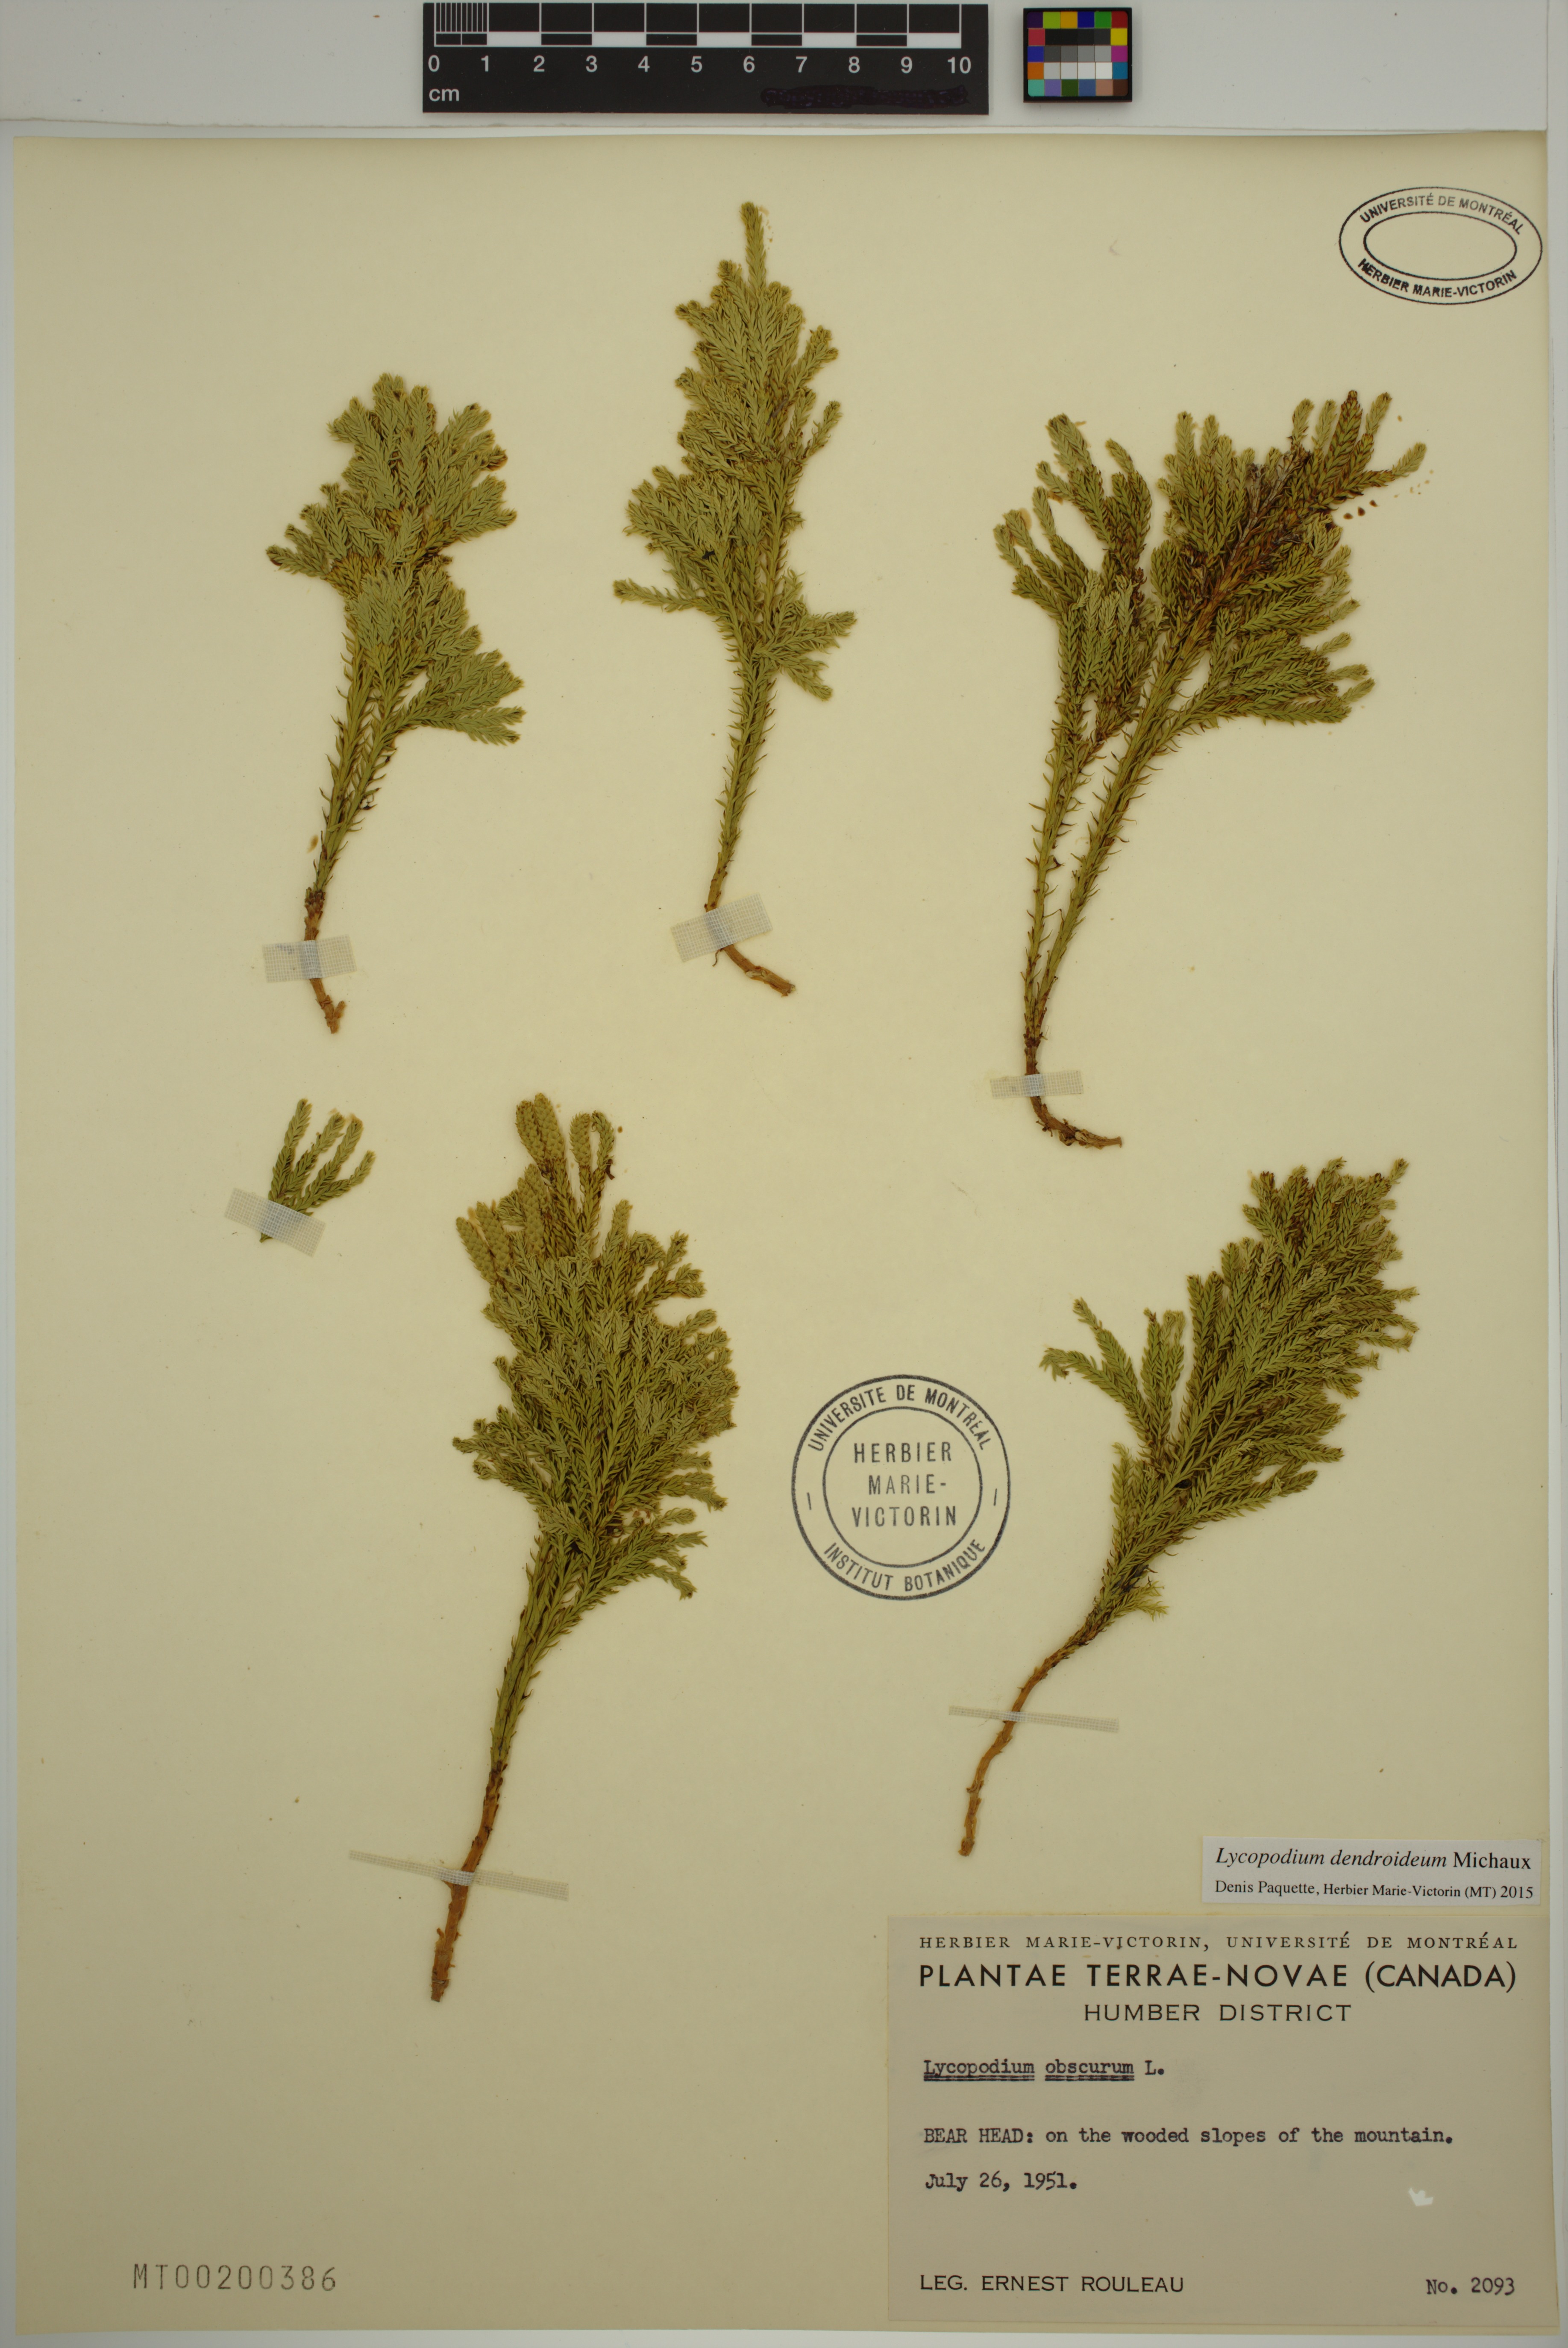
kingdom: Plantae
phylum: Tracheophyta
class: Lycopodiopsida
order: Lycopodiales
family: Lycopodiaceae
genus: Dendrolycopodium
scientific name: Dendrolycopodium dendroideum
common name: Northern tree-clubmoss
